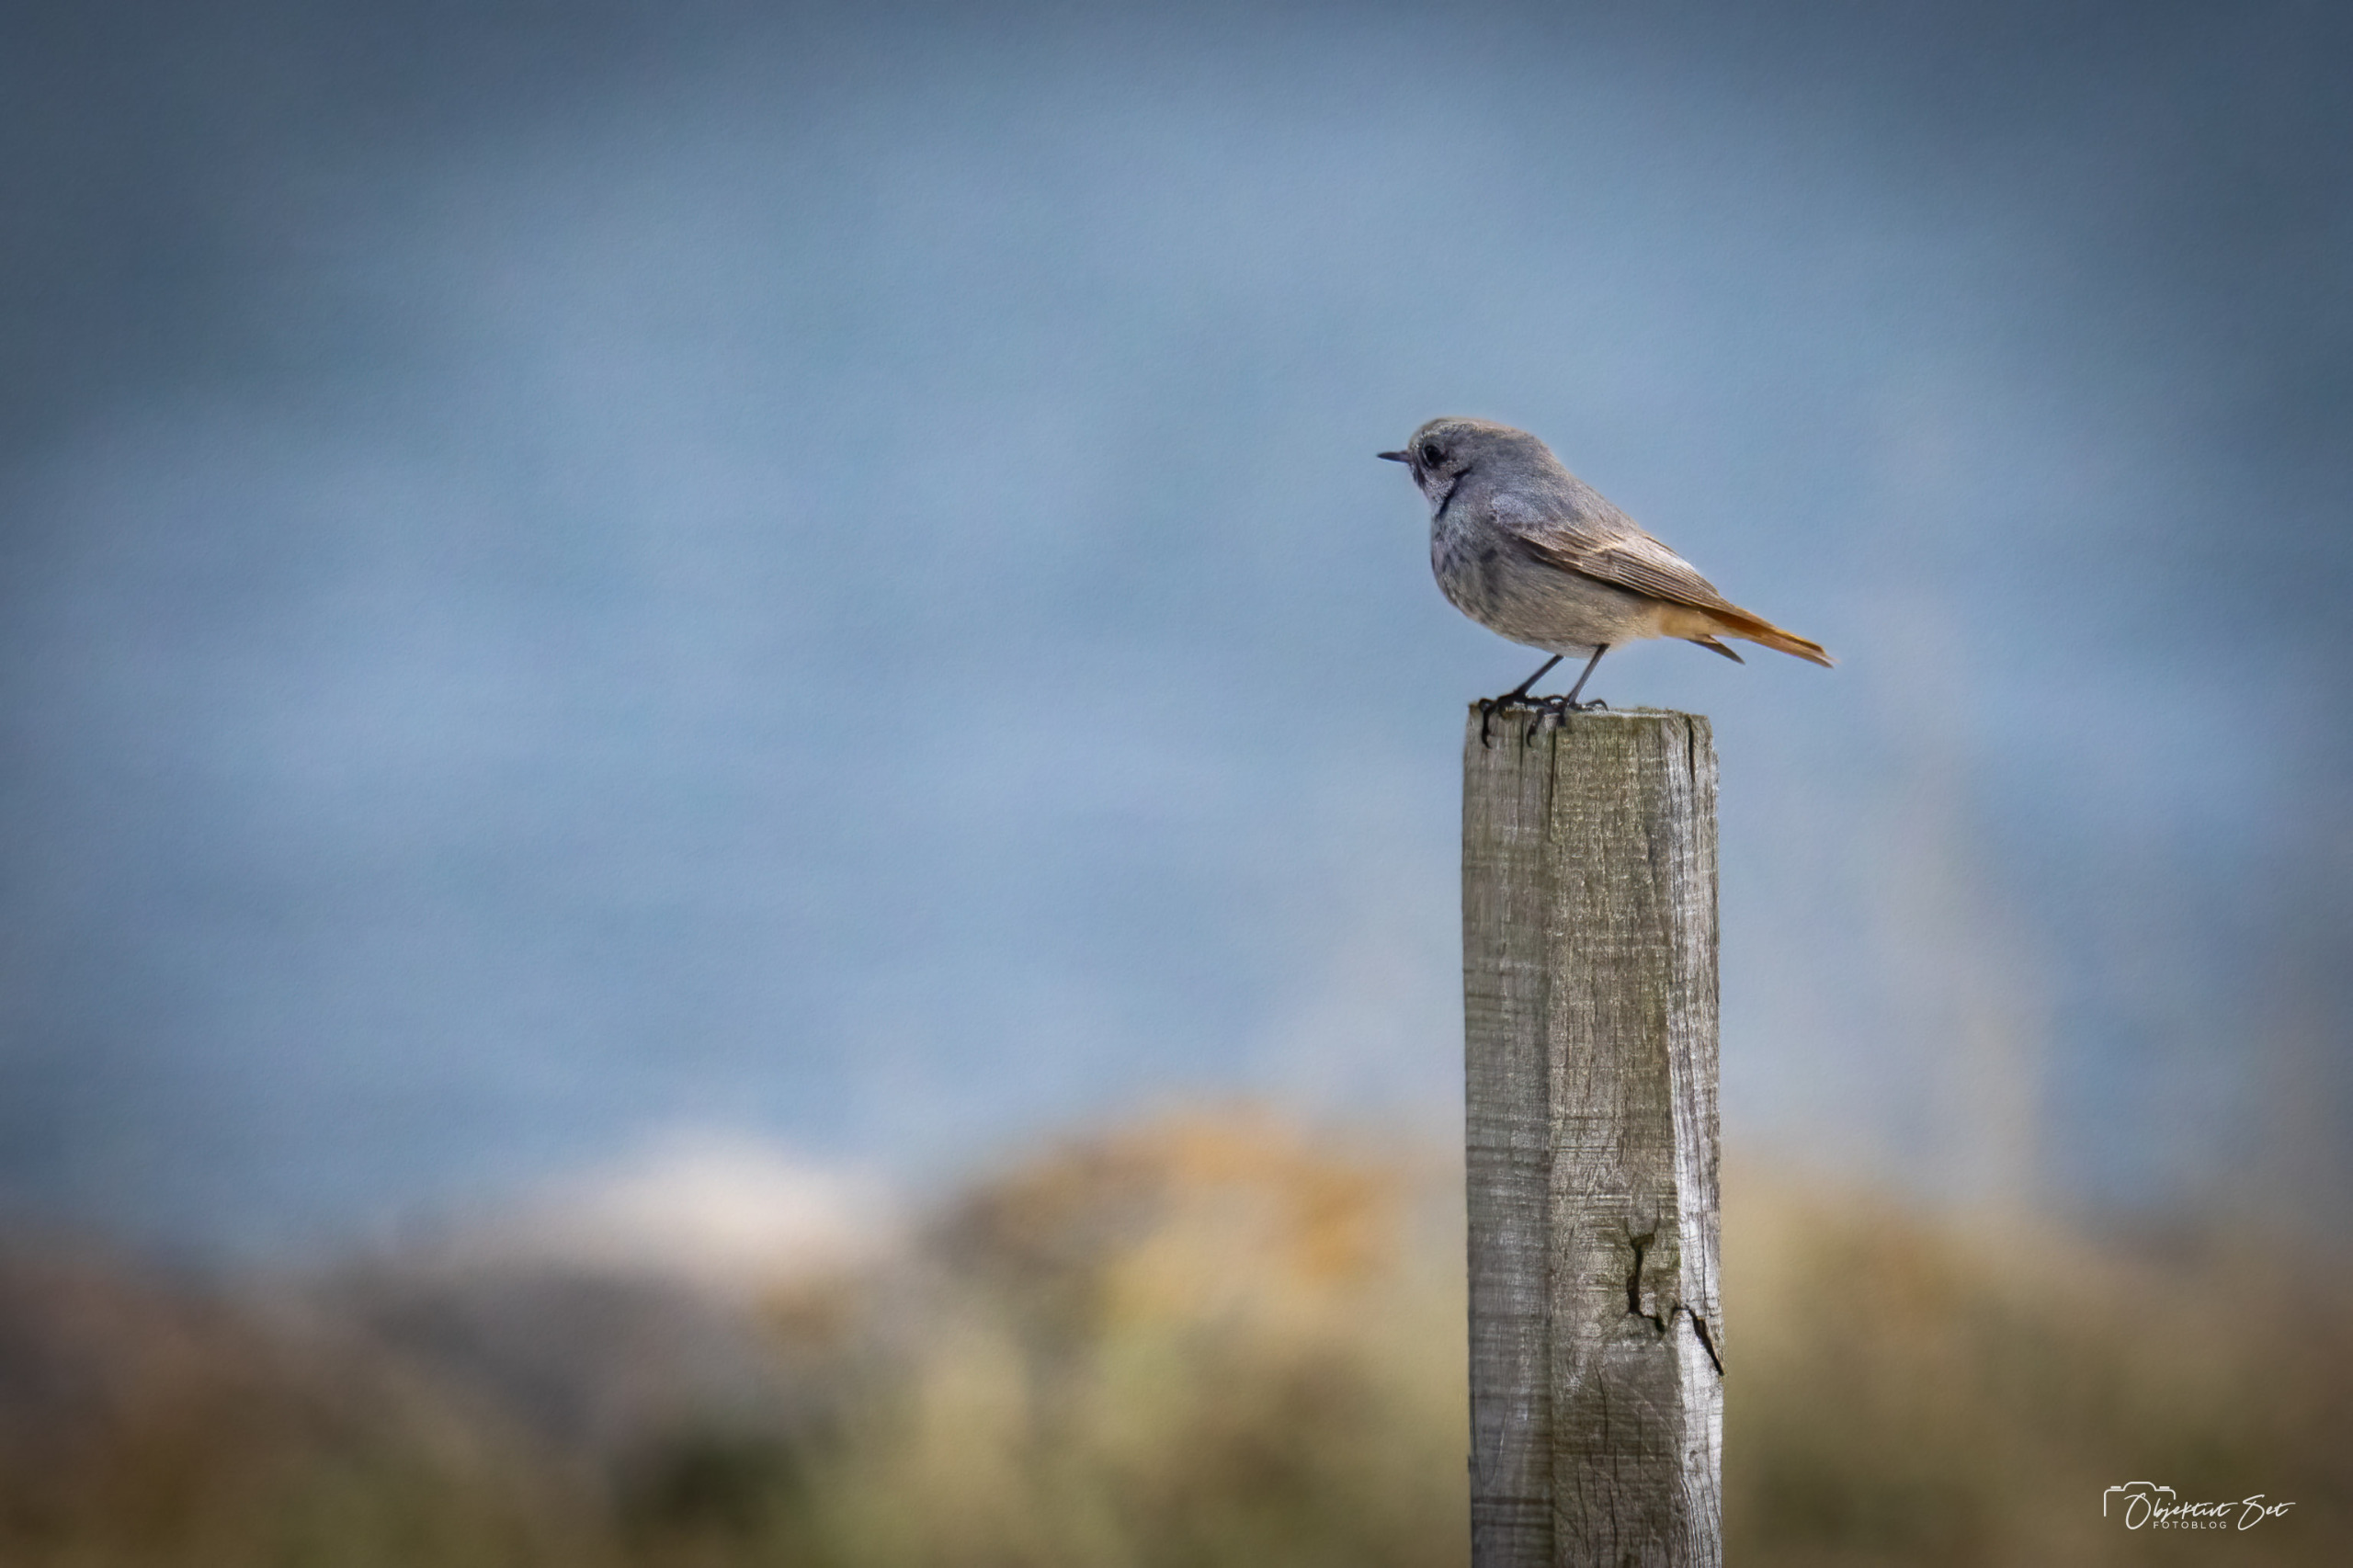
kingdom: Animalia
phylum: Chordata
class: Aves
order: Passeriformes
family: Muscicapidae
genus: Phoenicurus
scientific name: Phoenicurus ochruros
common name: Husrødstjert
